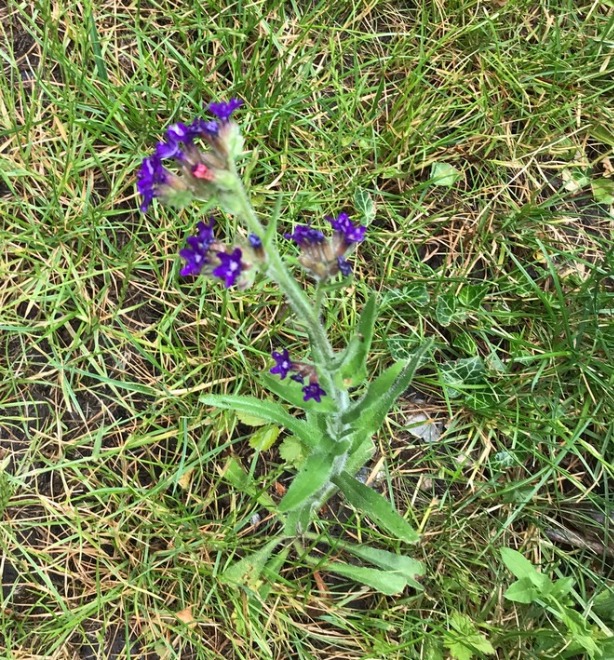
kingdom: Plantae
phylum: Tracheophyta
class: Magnoliopsida
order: Boraginales
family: Boraginaceae
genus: Anchusa
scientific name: Anchusa officinalis
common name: Læge-oksetunge
